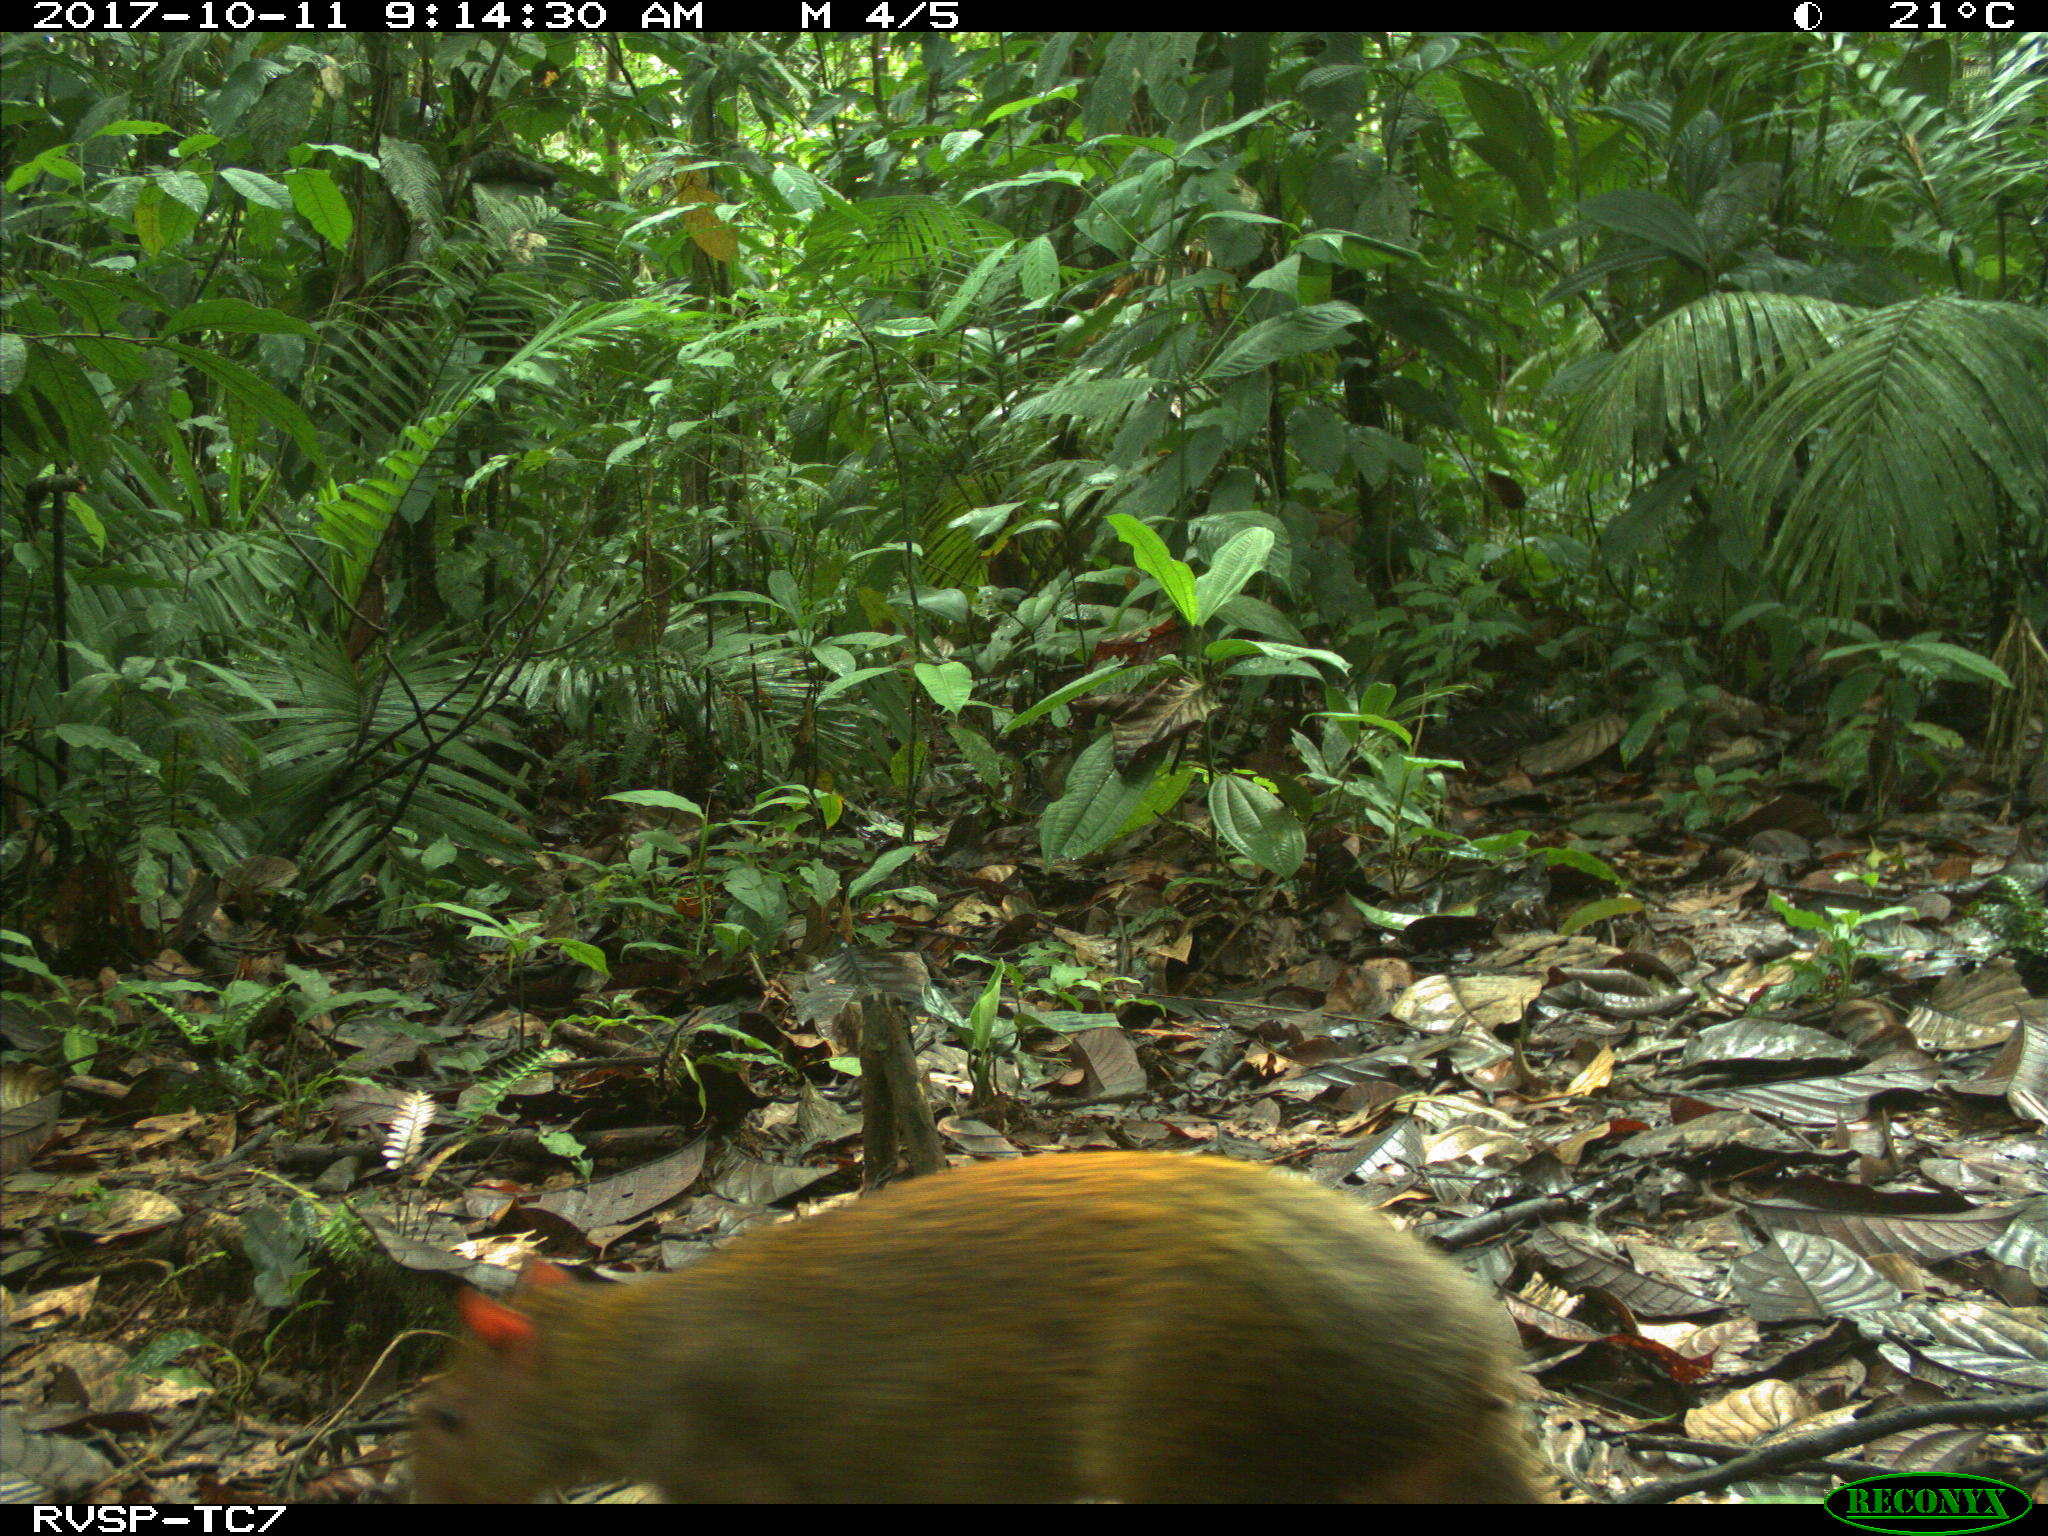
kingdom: Animalia
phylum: Chordata
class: Mammalia
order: Rodentia
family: Dasyproctidae
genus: Dasyprocta
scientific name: Dasyprocta punctata
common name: Central american agouti
